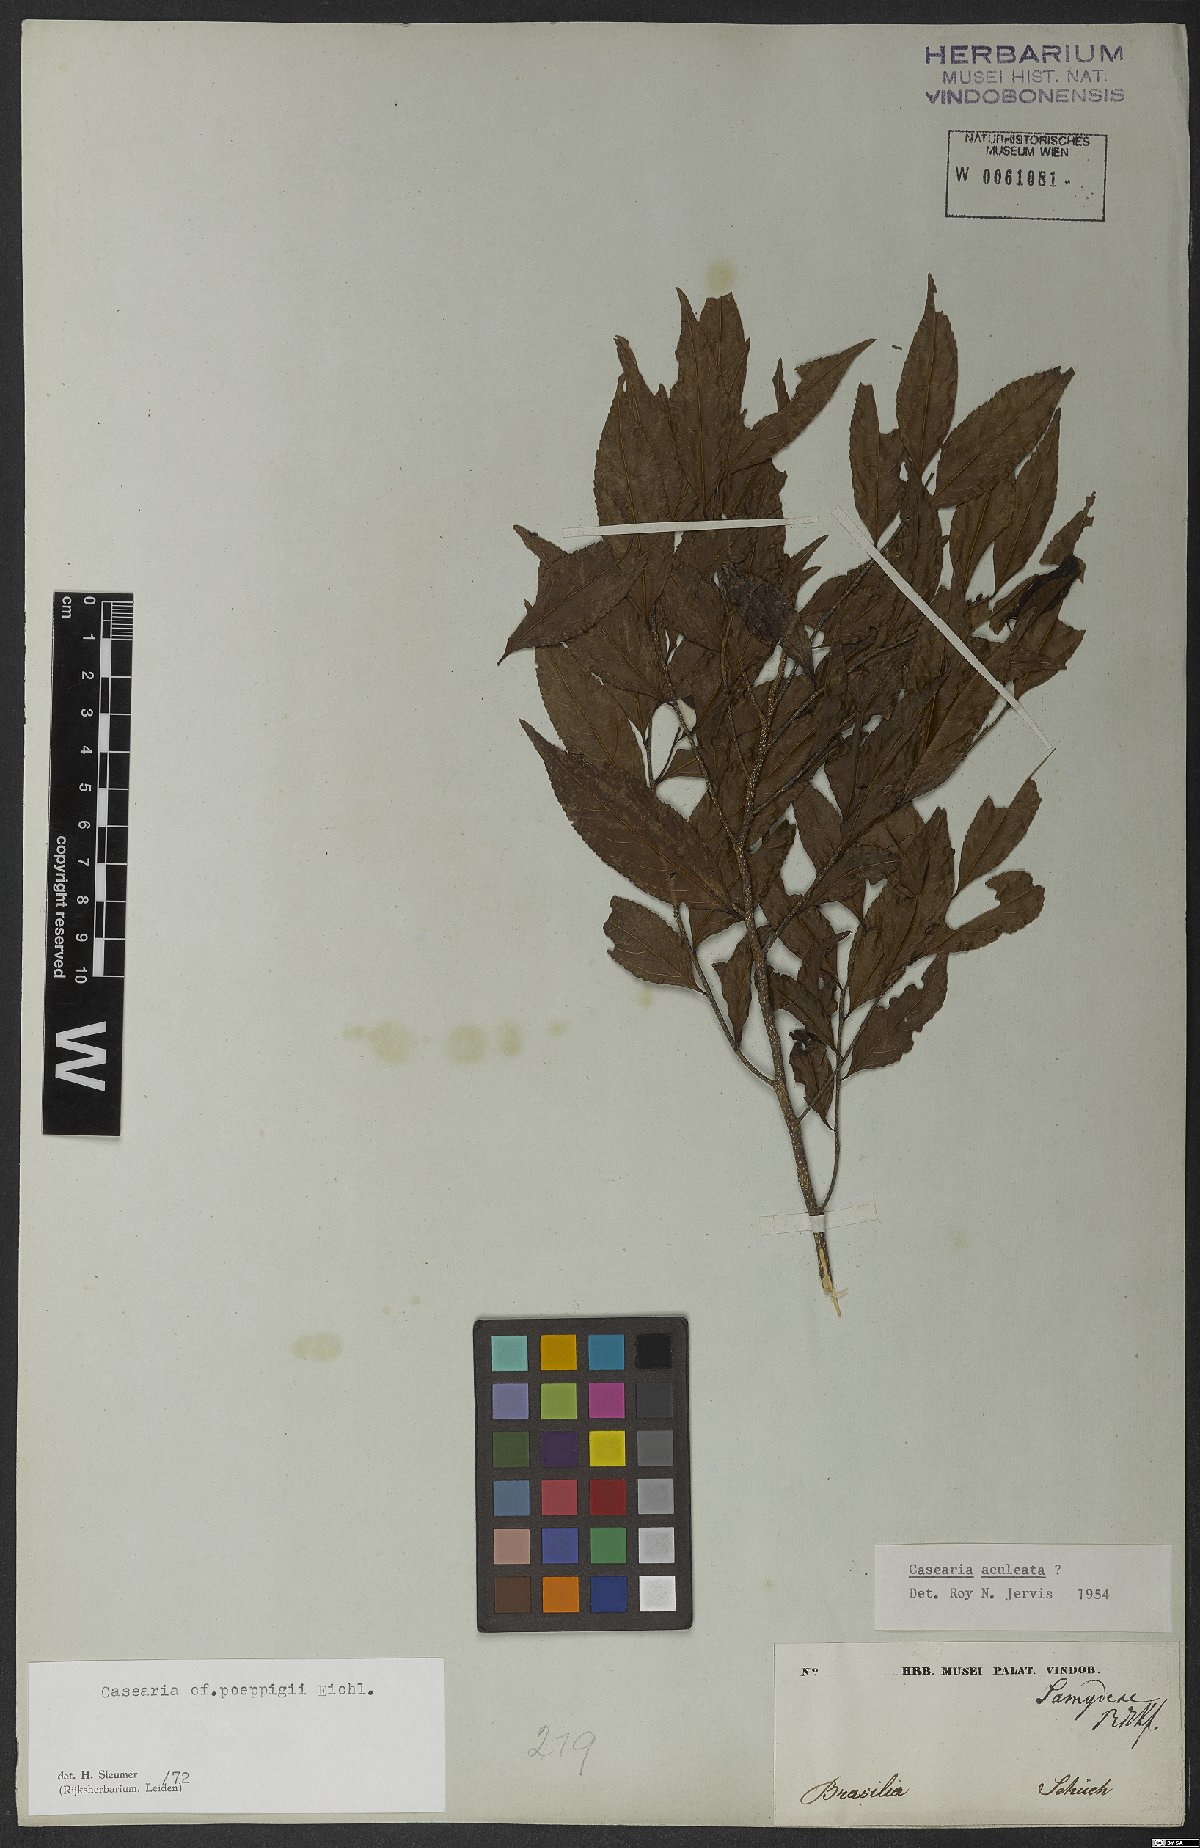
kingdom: Plantae
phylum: Tracheophyta
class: Magnoliopsida
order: Malpighiales
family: Salicaceae
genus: Casearia
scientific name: Casearia arborea
